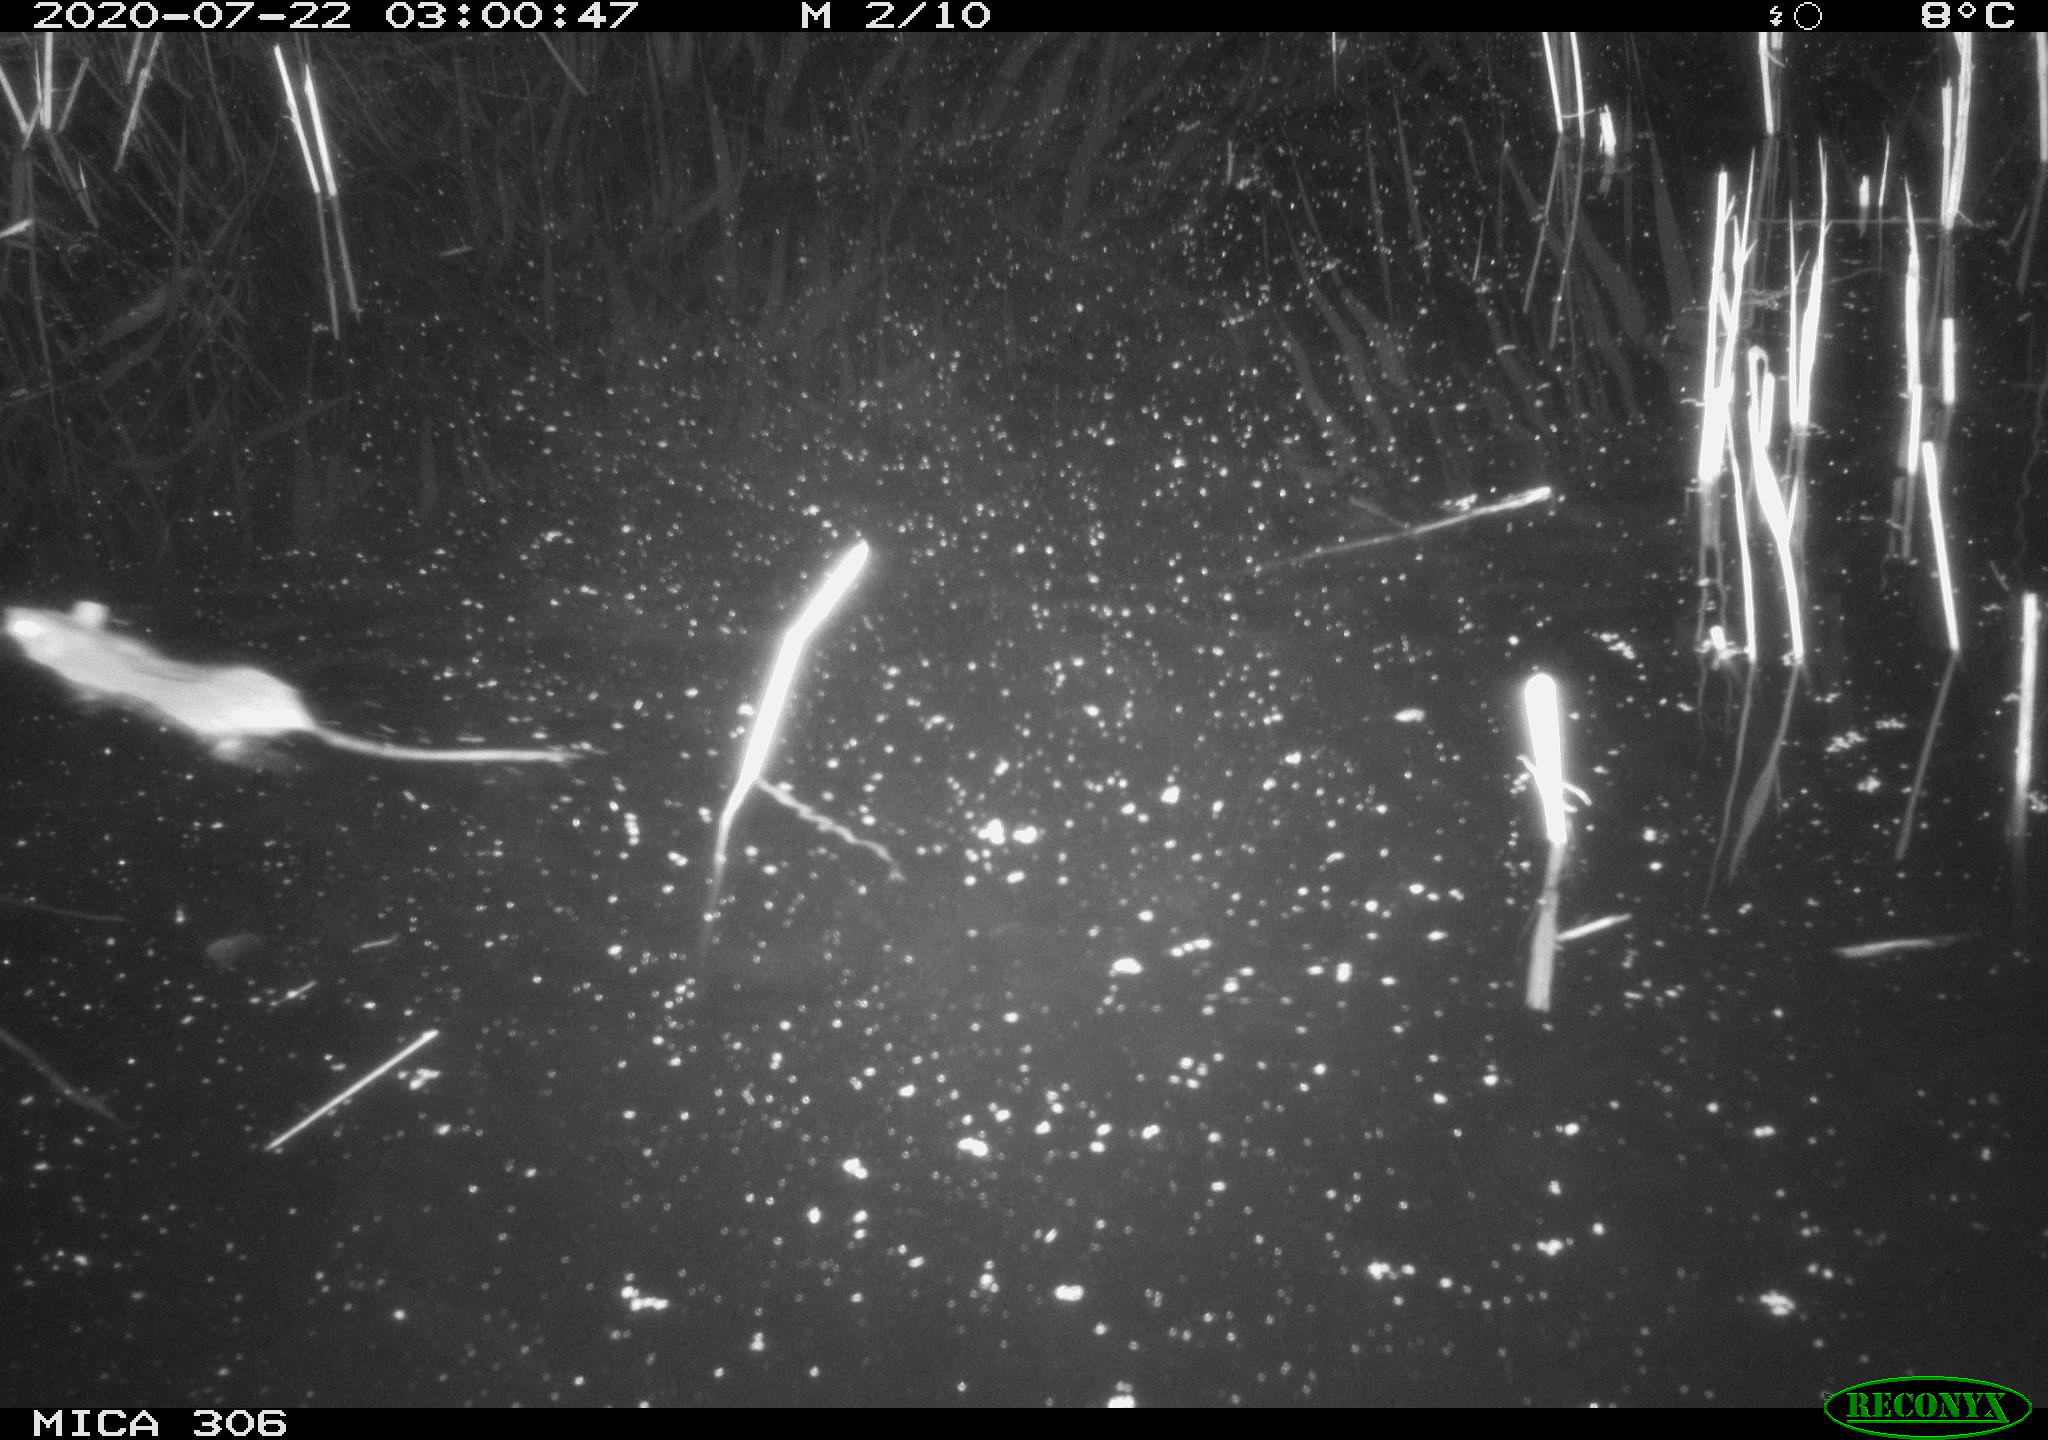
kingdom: Animalia
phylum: Chordata
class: Mammalia
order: Rodentia
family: Muridae
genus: Rattus
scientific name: Rattus norvegicus
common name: Brown rat
